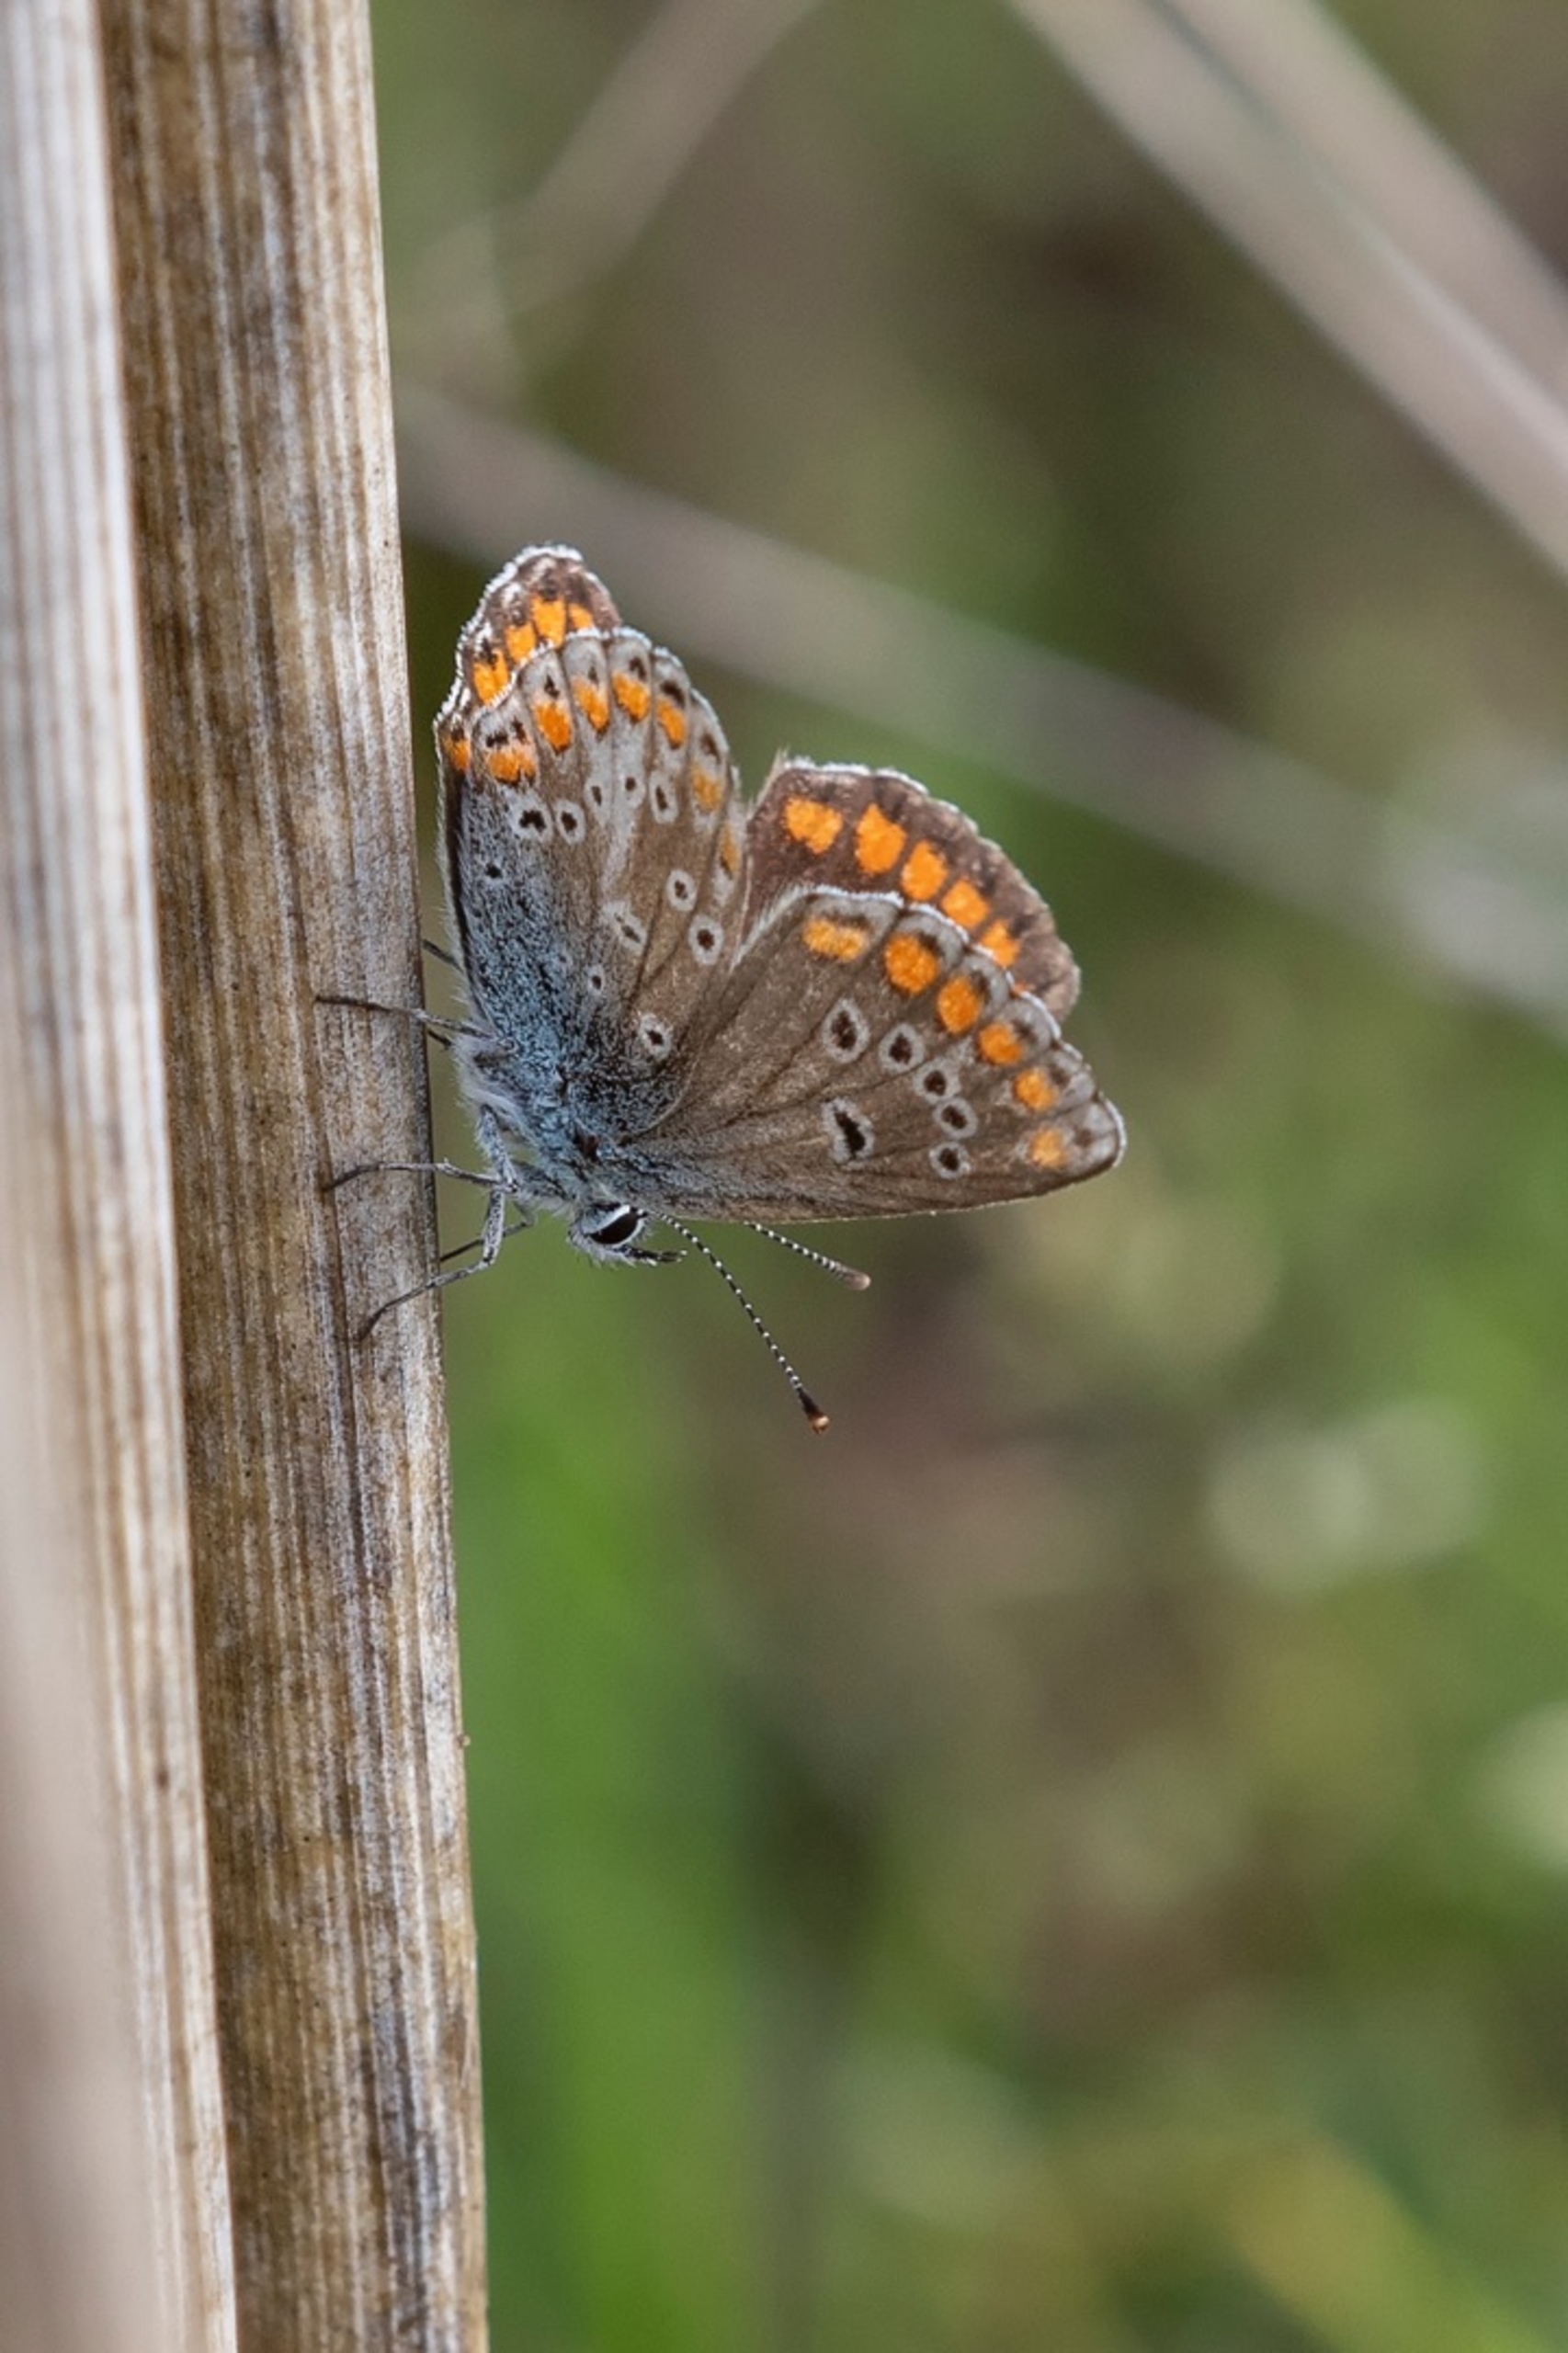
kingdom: Animalia
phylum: Arthropoda
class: Insecta
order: Lepidoptera
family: Lycaenidae
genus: Aricia
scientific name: Aricia agestis
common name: Rødplettet blåfugl
